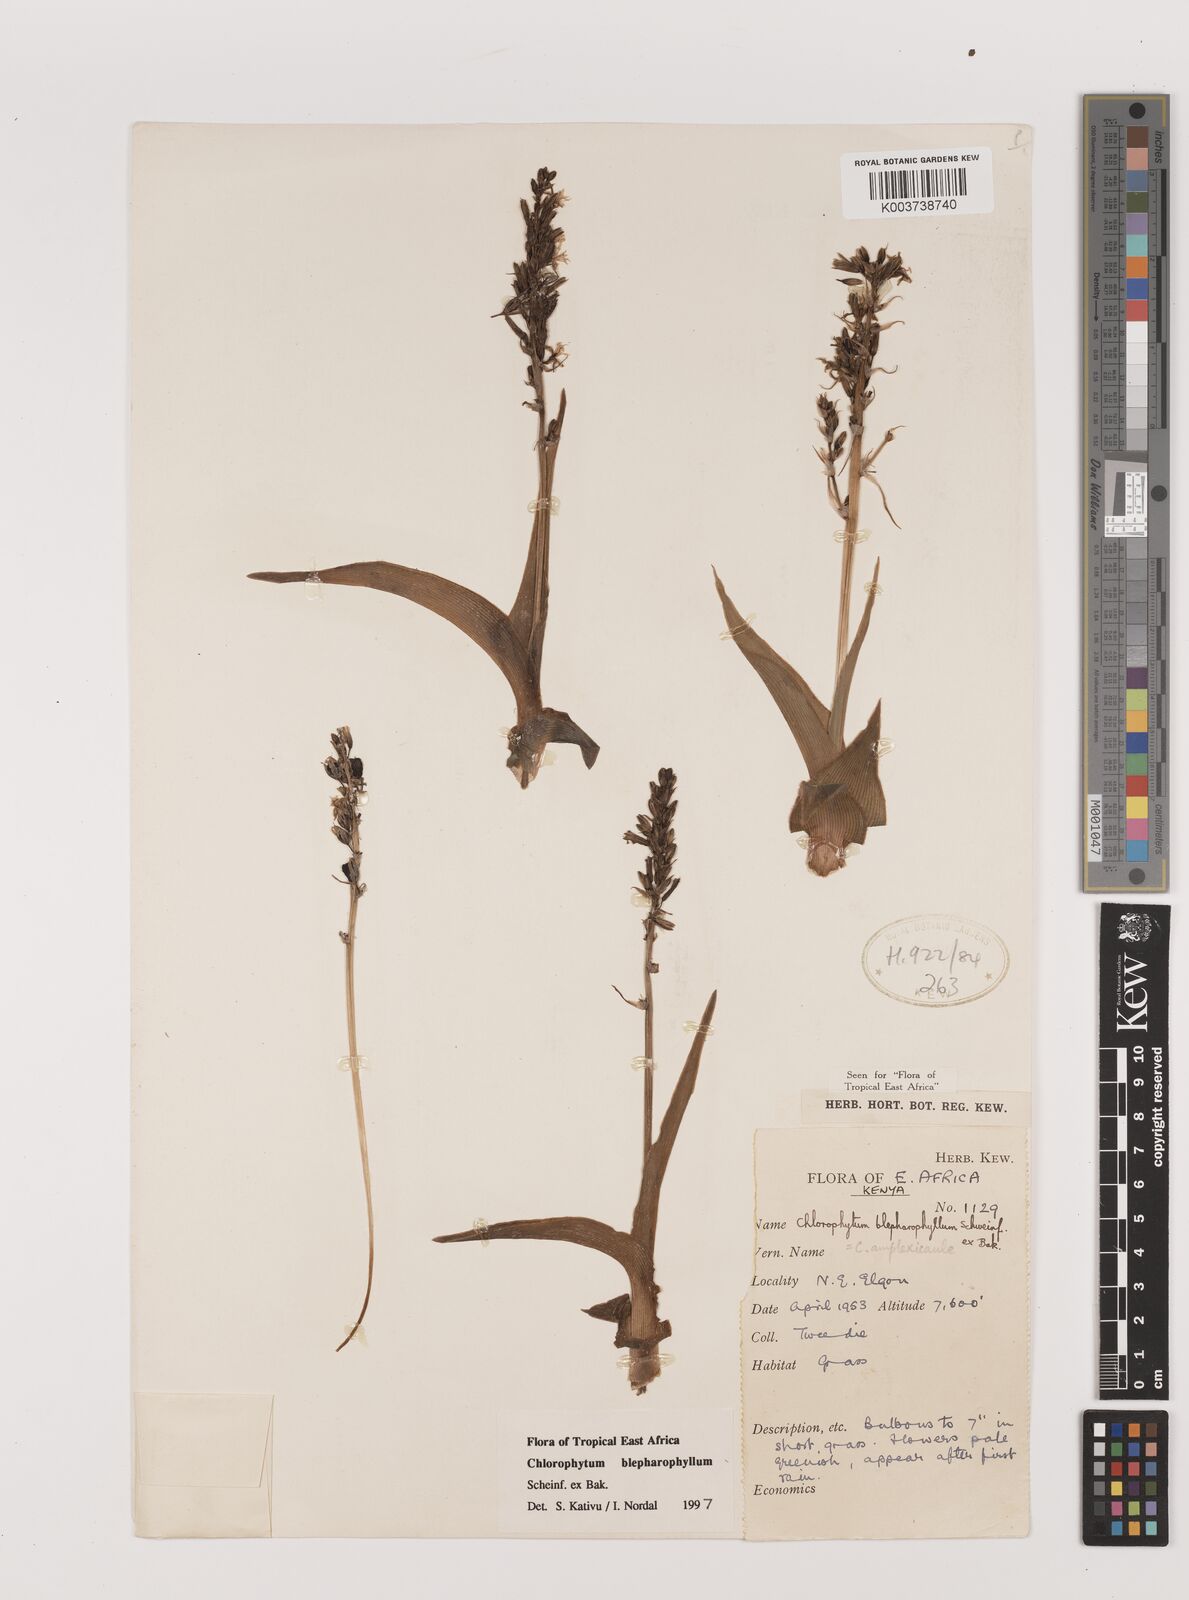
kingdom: Plantae
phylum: Tracheophyta
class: Liliopsida
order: Asparagales
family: Asparagaceae
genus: Chlorophytum
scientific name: Chlorophytum blepharophyllum
